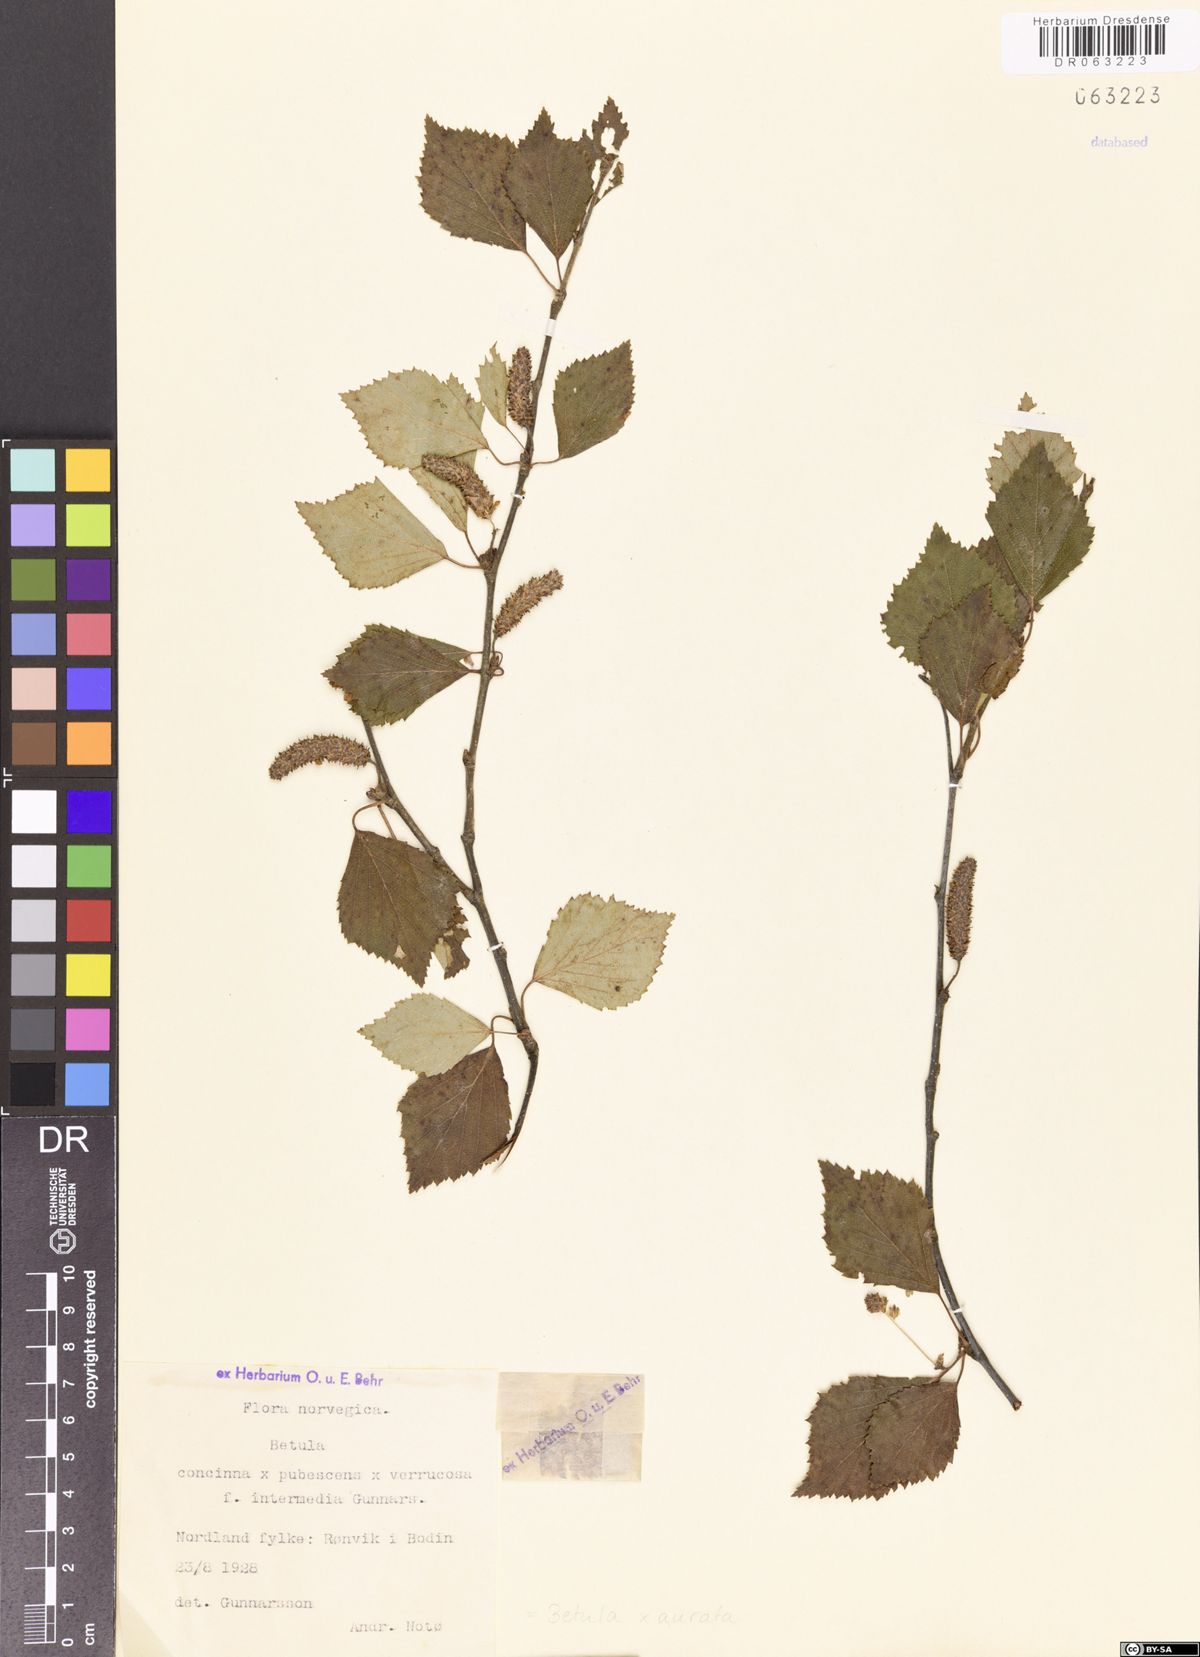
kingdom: Plantae
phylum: Tracheophyta
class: Magnoliopsida
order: Fagales
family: Betulaceae
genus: Betula
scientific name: Betula aurata
